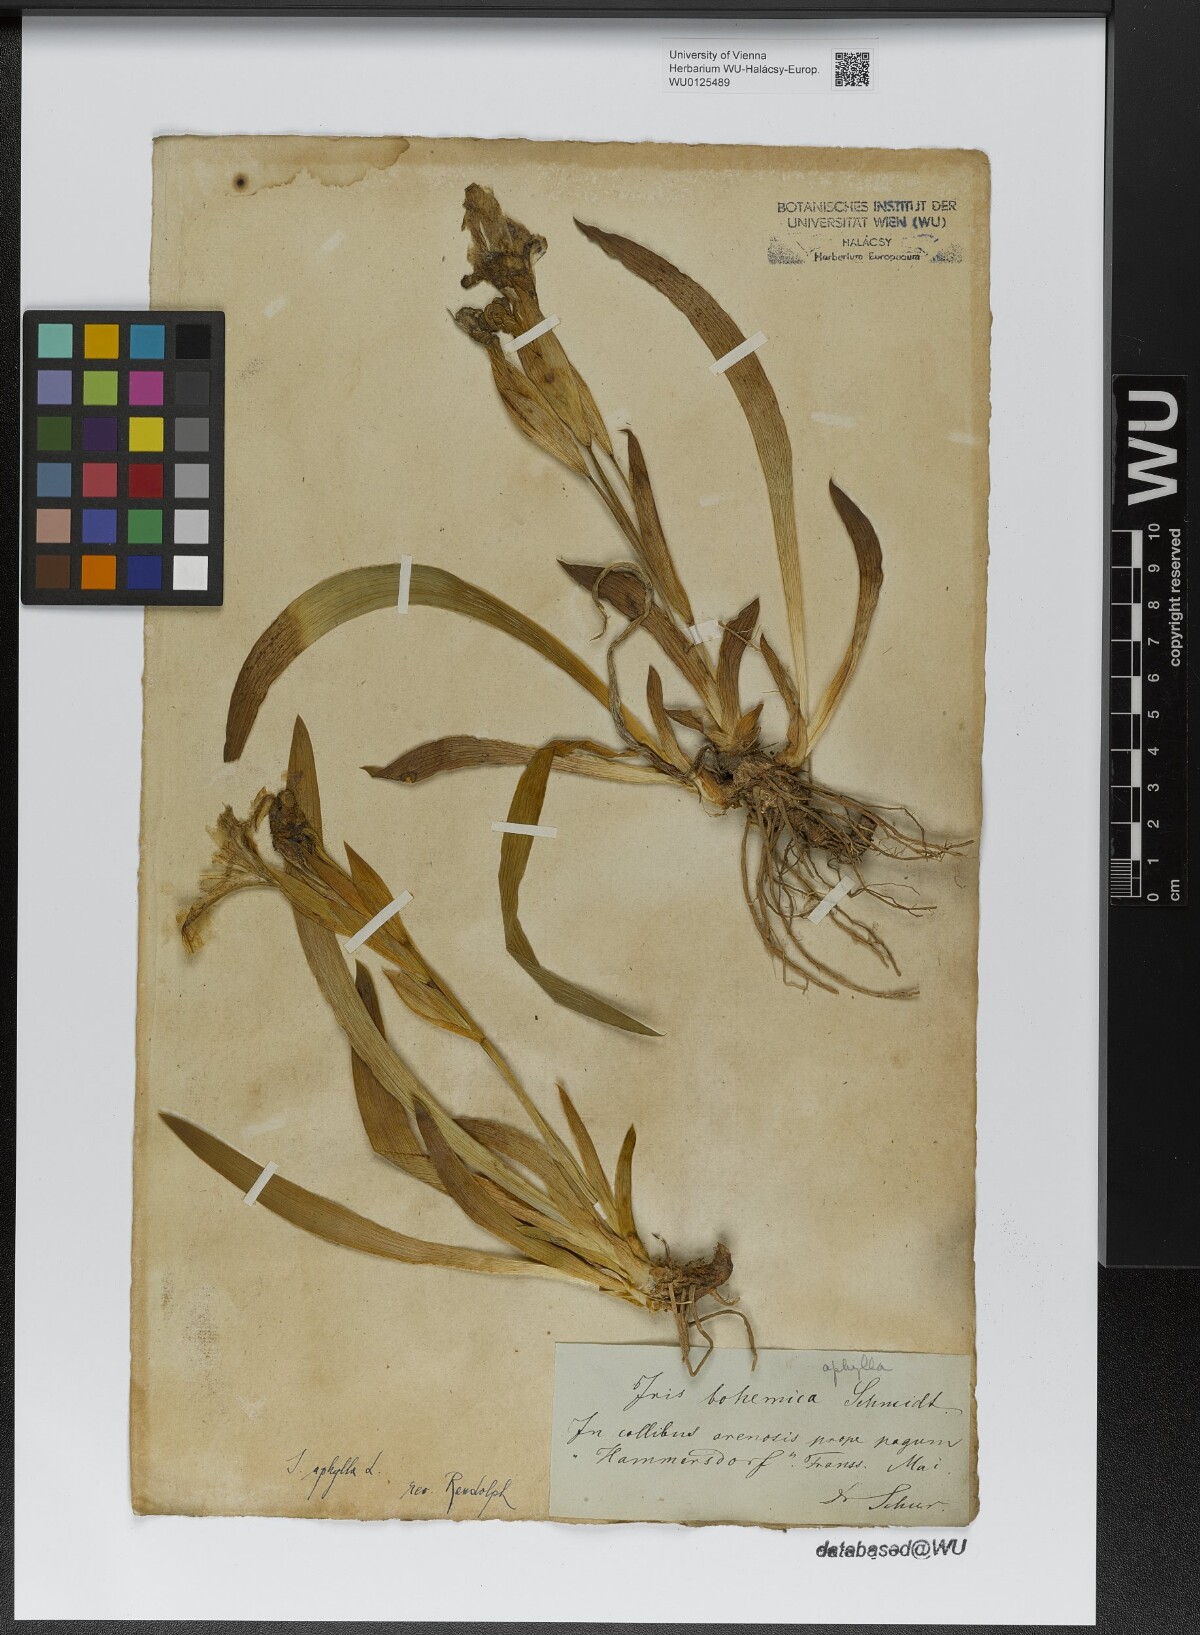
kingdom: Plantae
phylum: Tracheophyta
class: Liliopsida
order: Asparagales
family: Iridaceae
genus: Iris
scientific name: Iris aphylla
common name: Stool iris
